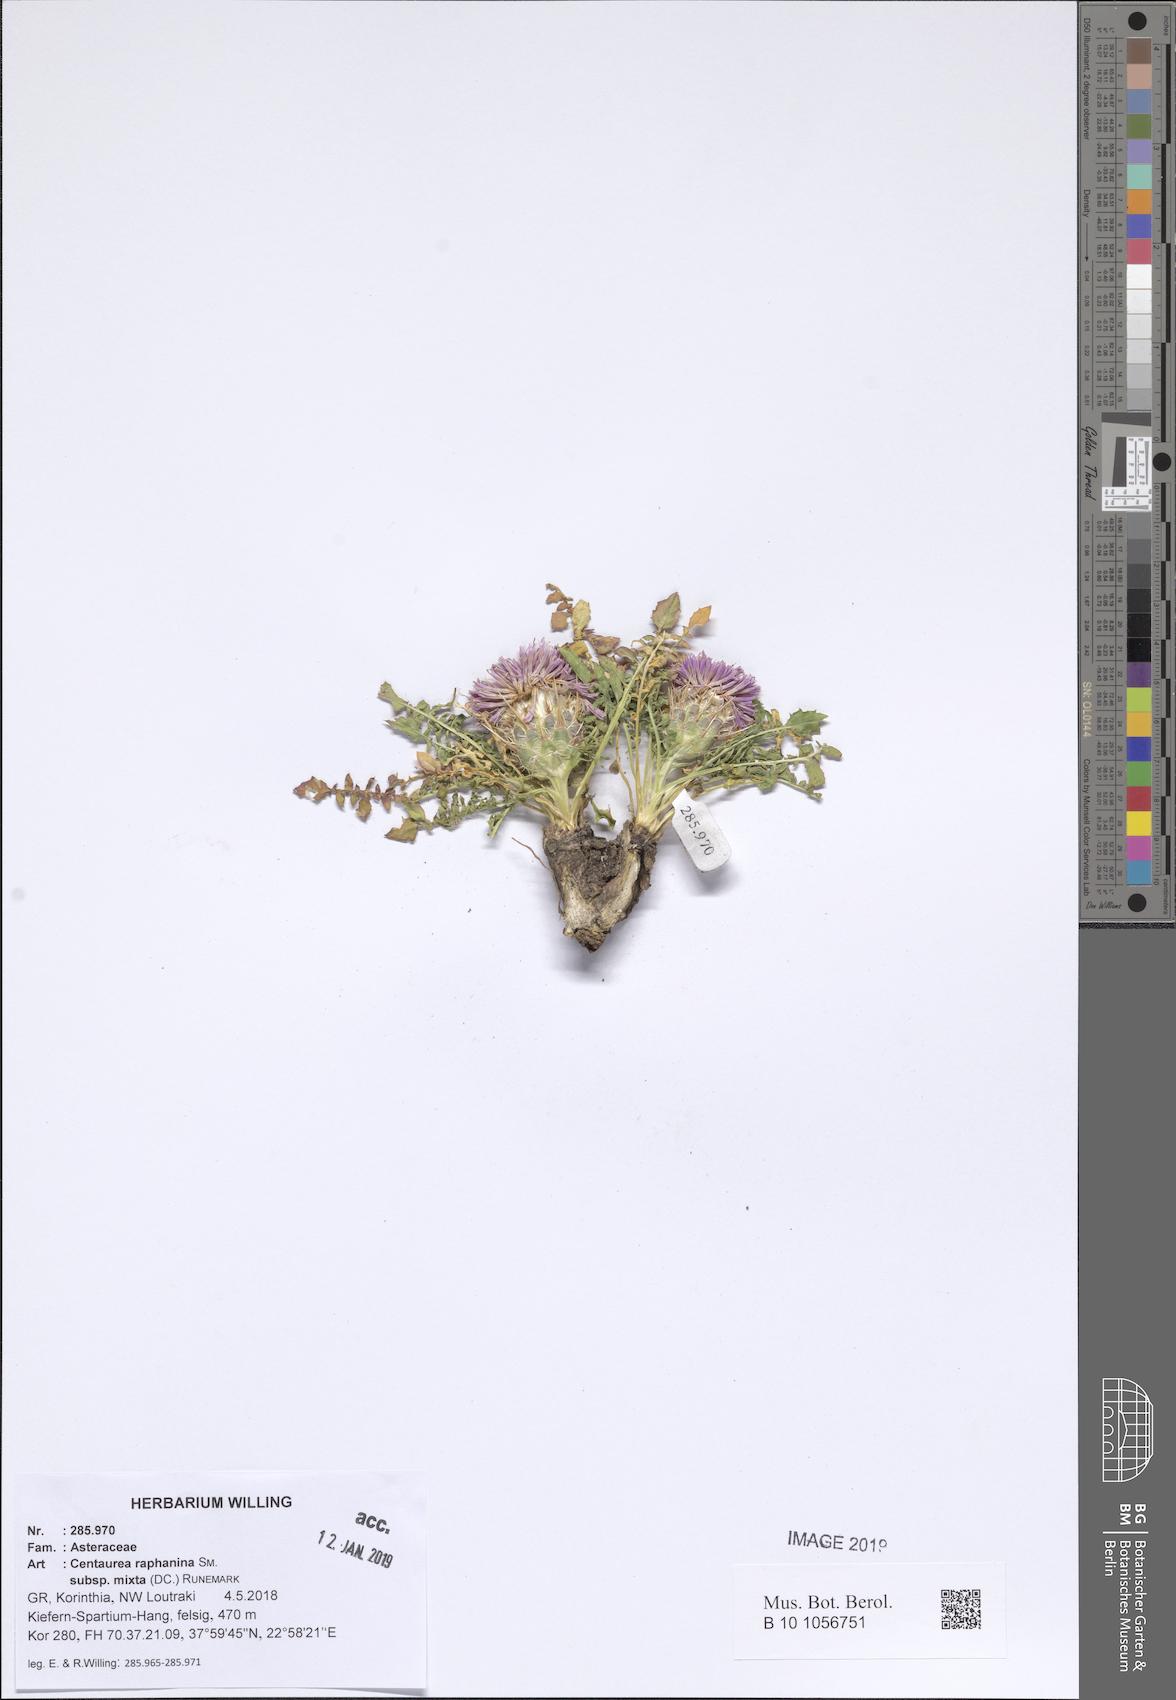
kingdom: Plantae
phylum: Tracheophyta
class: Magnoliopsida
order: Asterales
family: Asteraceae
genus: Centaurea
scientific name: Centaurea raphanina
